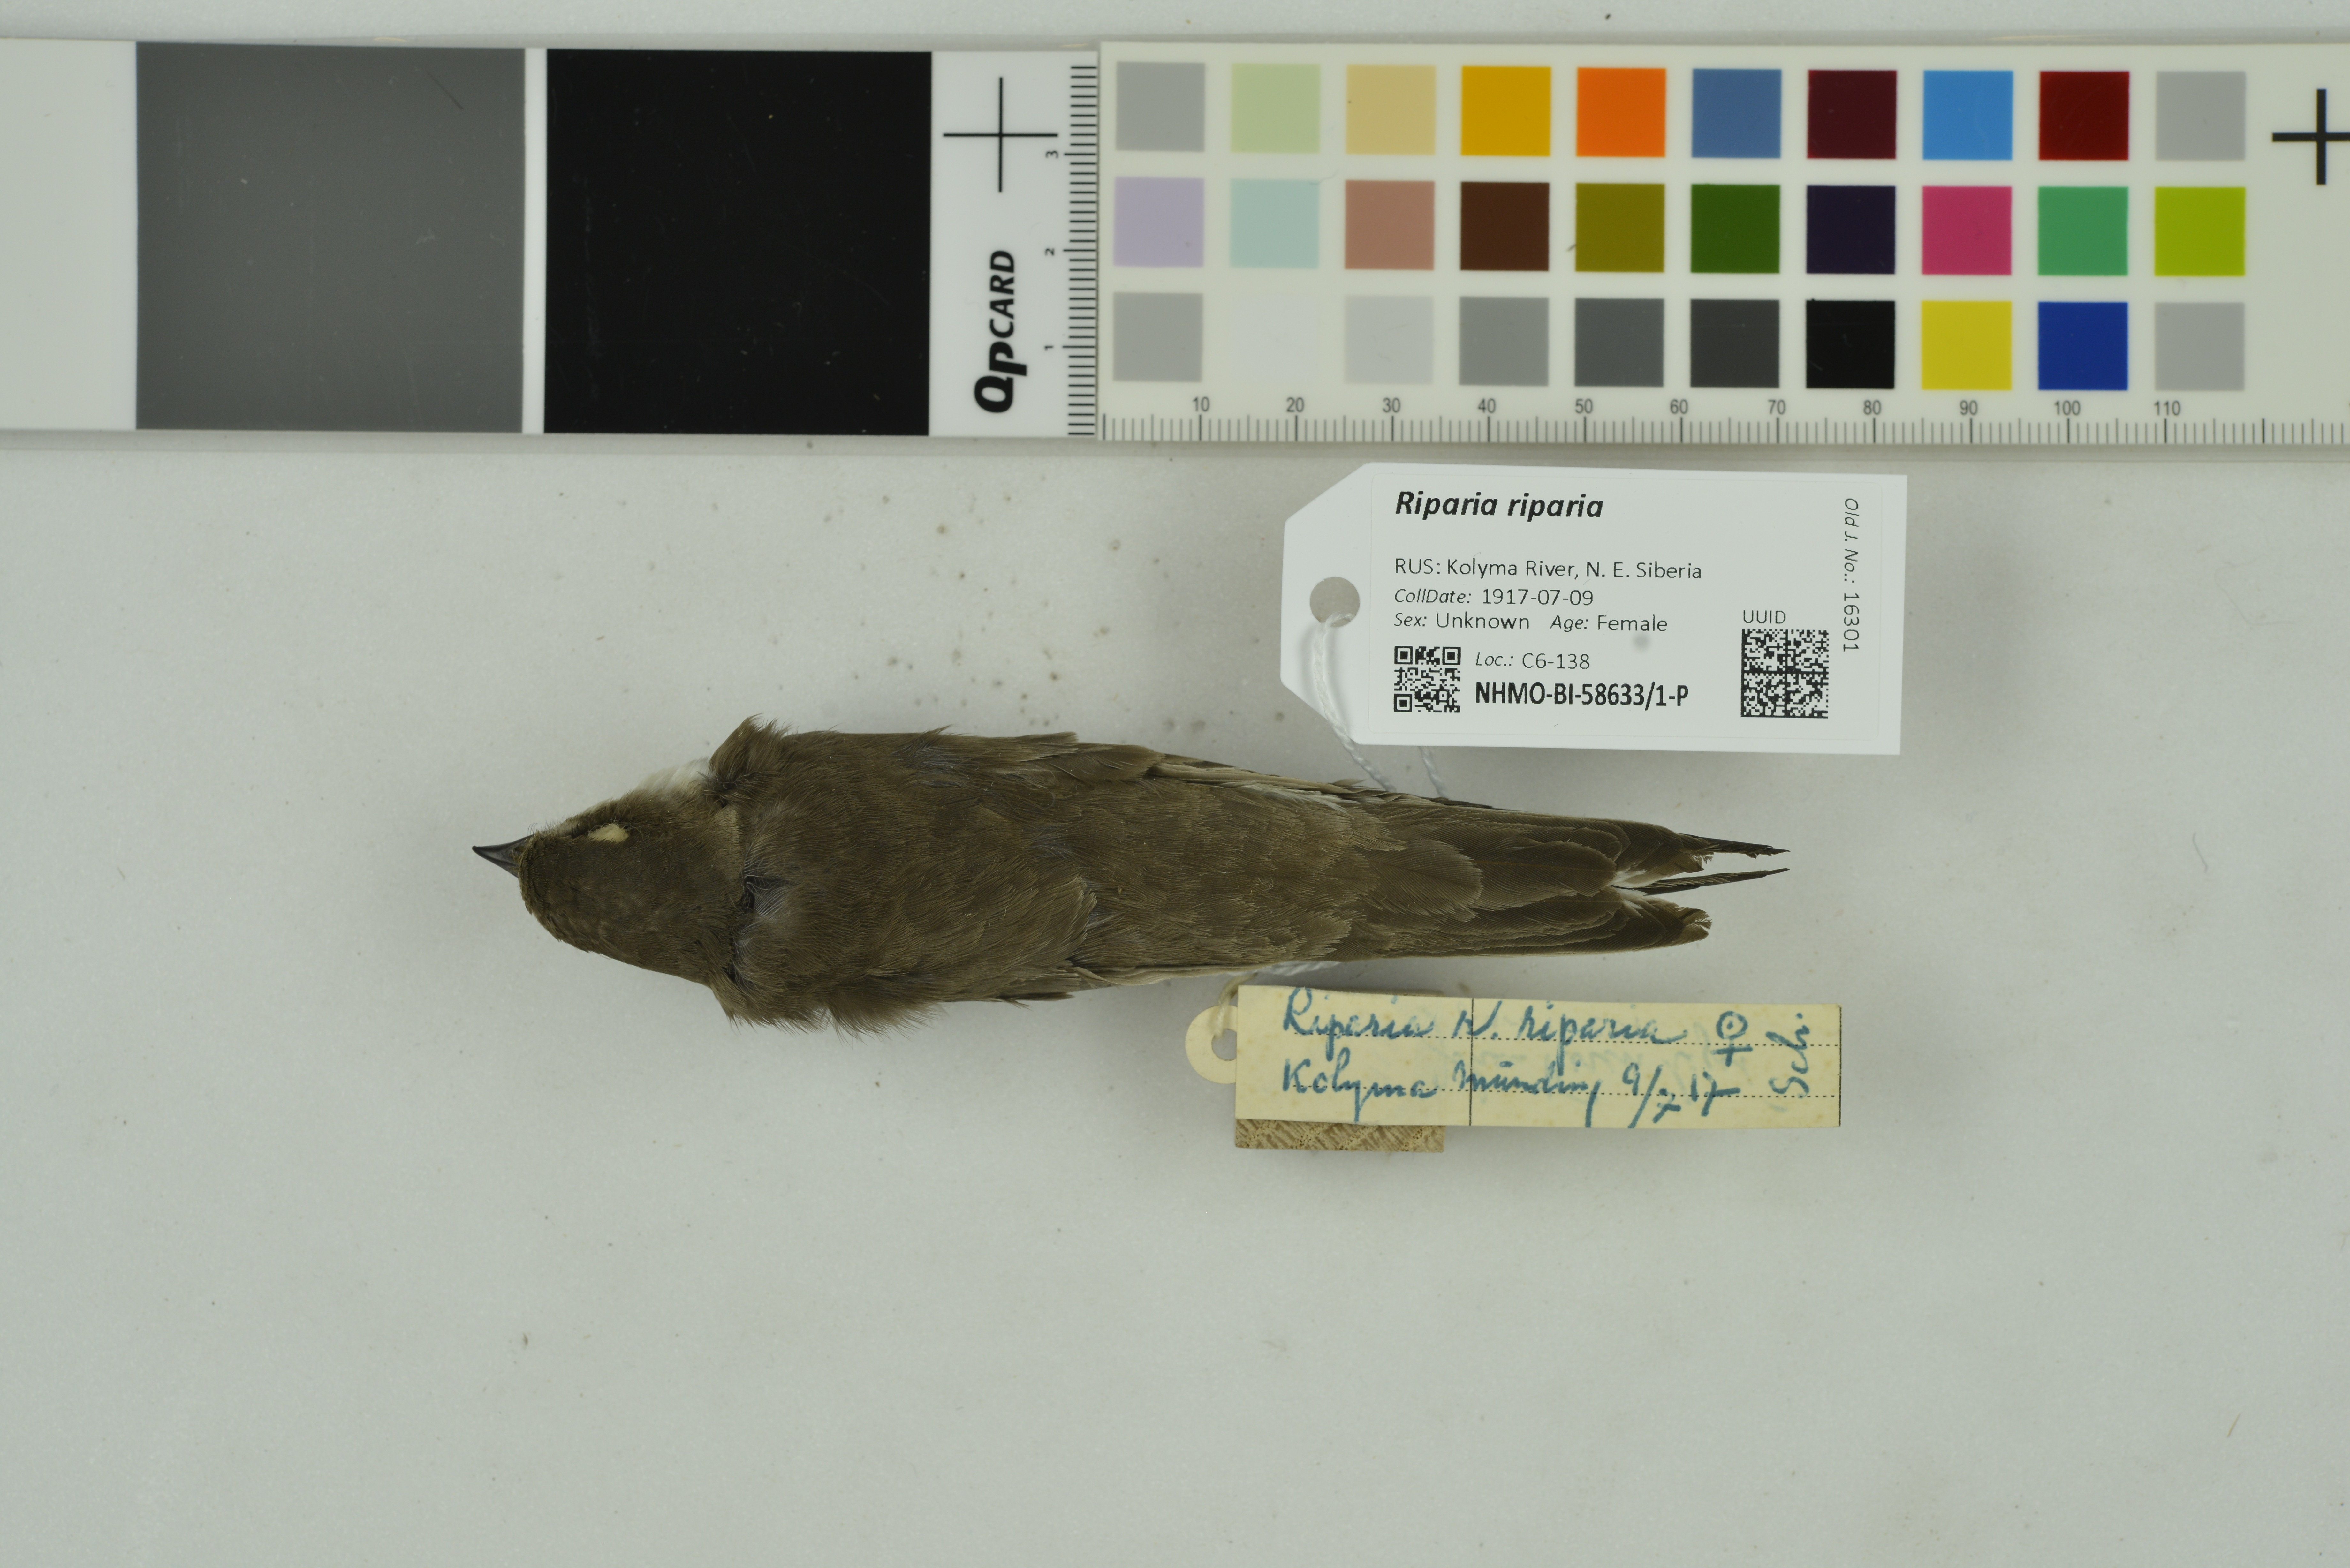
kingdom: Animalia
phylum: Chordata
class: Aves
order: Passeriformes
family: Hirundinidae
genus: Riparia
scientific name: Riparia riparia
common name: Sand martin
